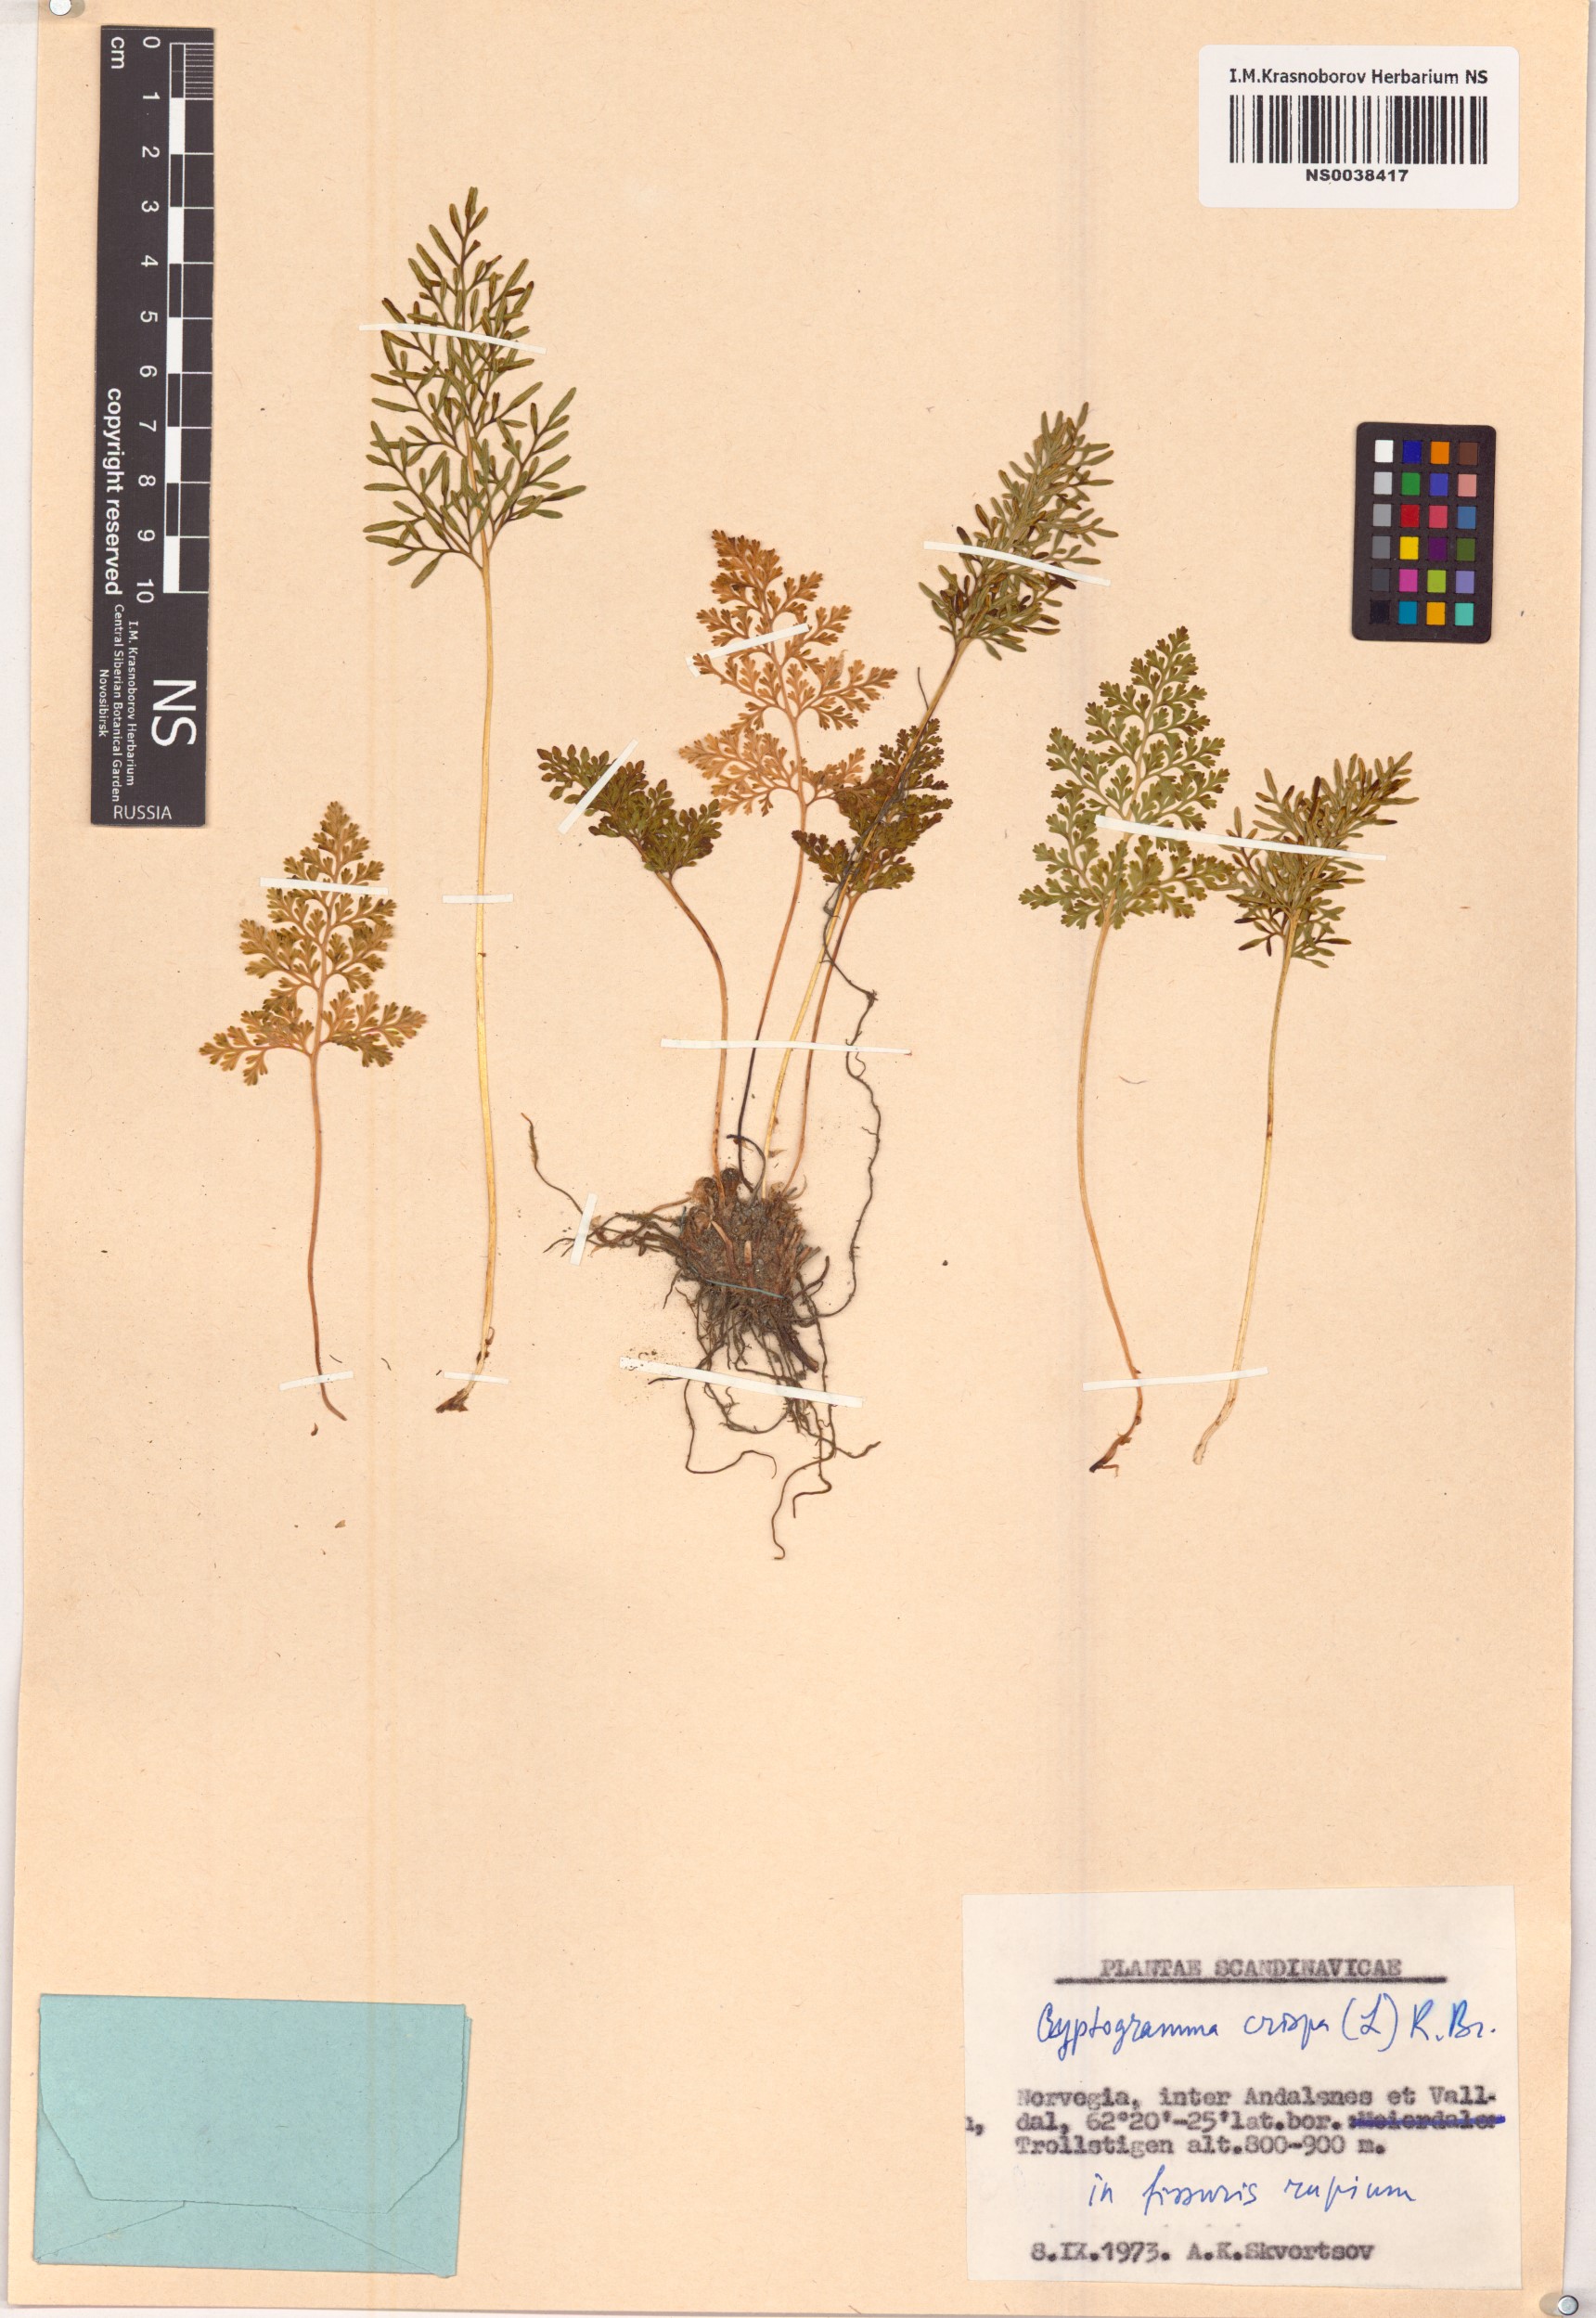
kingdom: Plantae
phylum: Tracheophyta
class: Polypodiopsida
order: Polypodiales
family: Pteridaceae
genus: Cryptogramma
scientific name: Cryptogramma crispa
